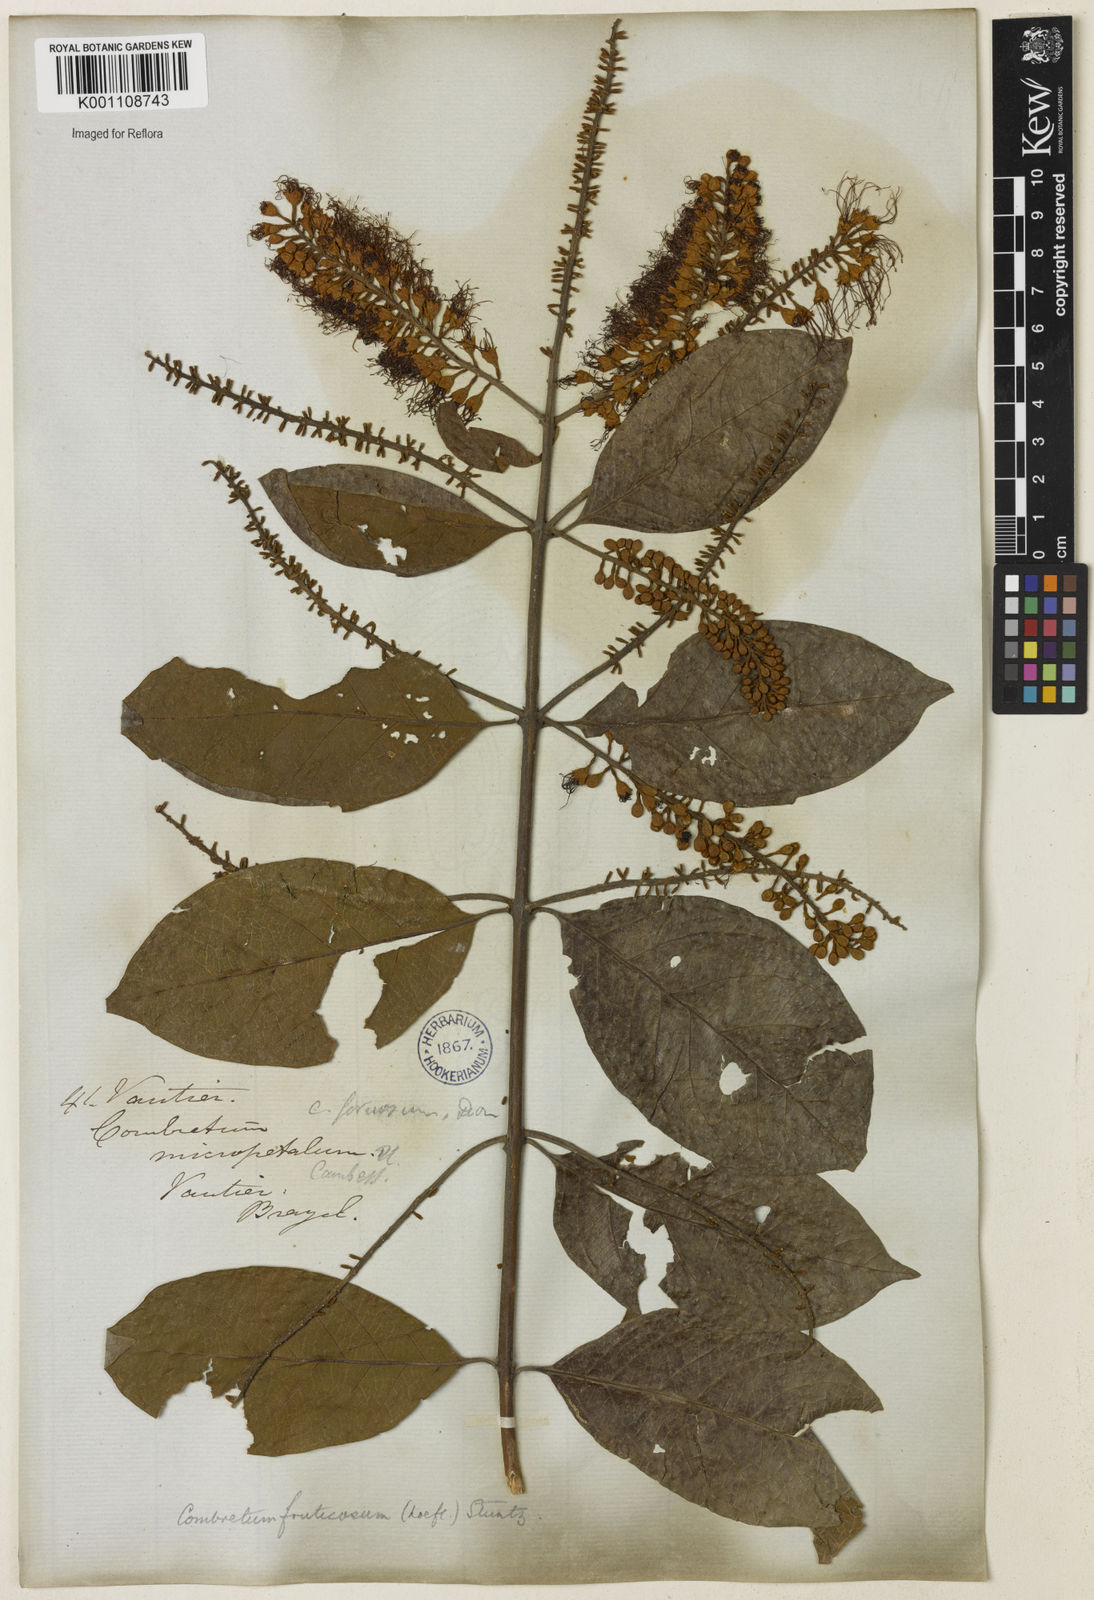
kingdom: Plantae
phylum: Tracheophyta
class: Magnoliopsida
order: Myrtales
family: Combretaceae
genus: Combretum
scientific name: Combretum fruticosum
